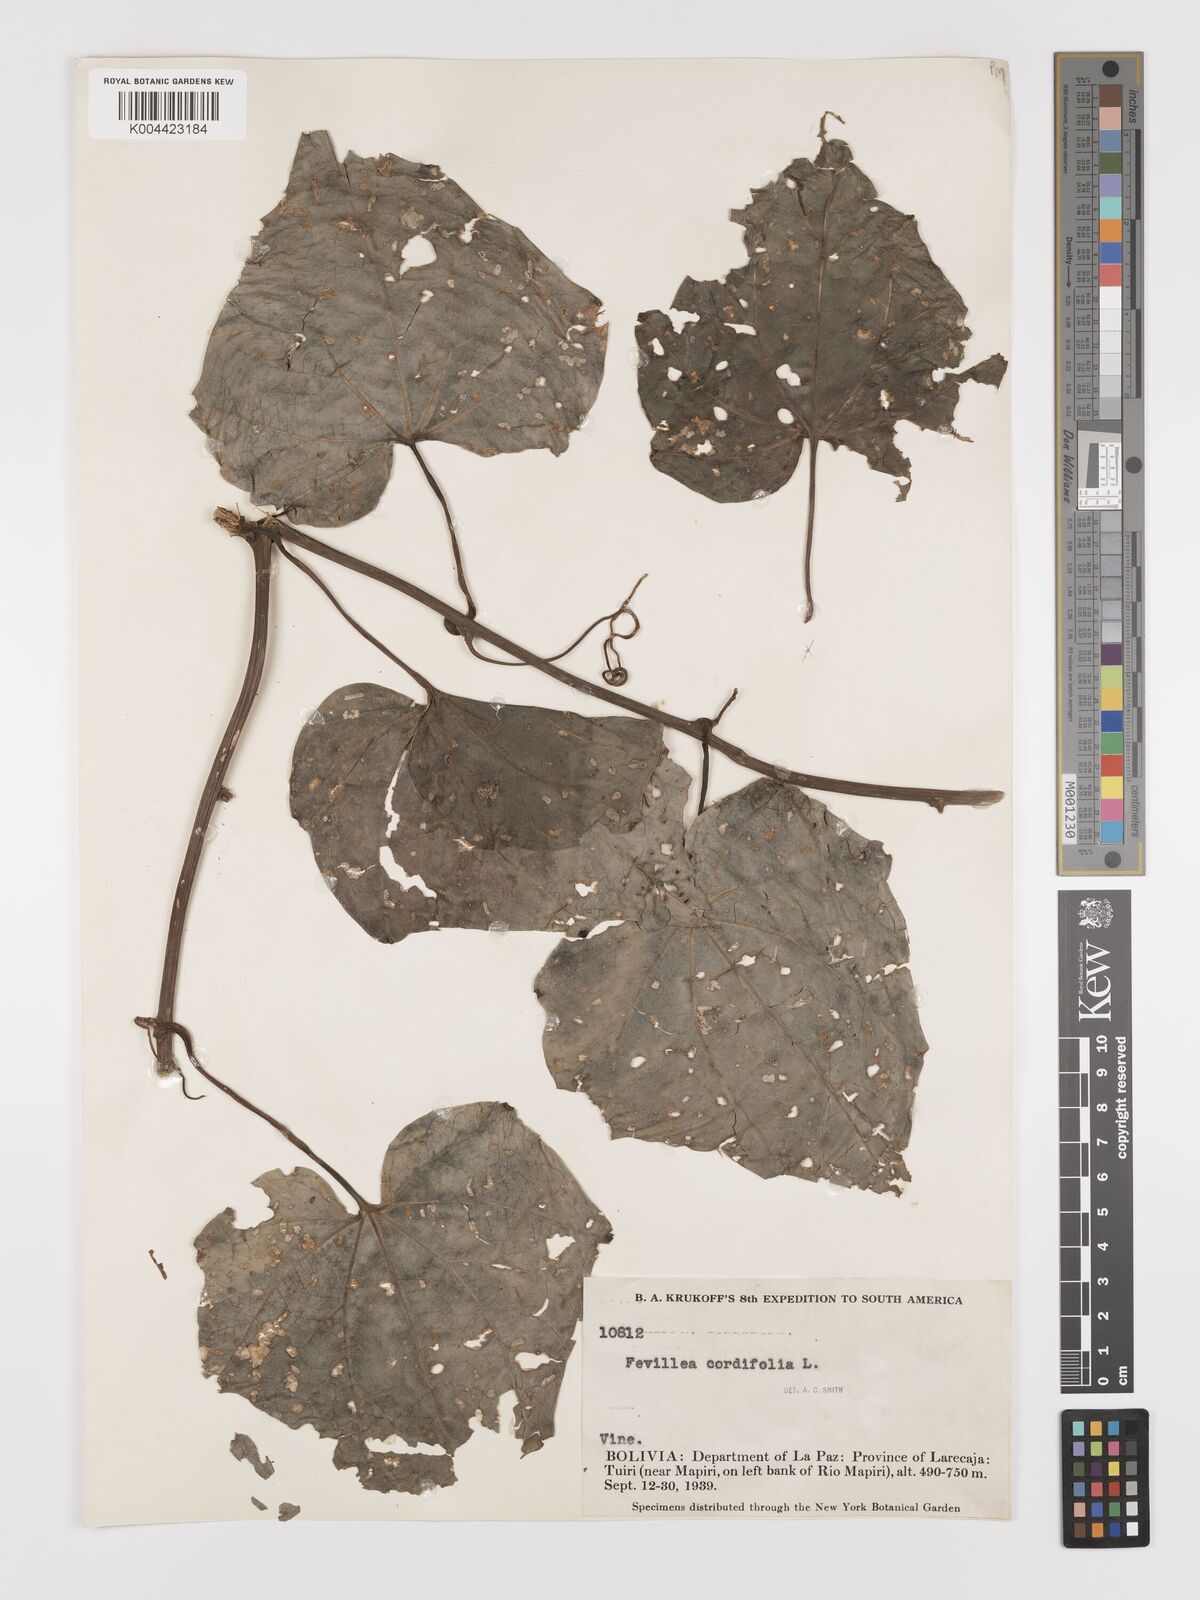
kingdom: Plantae
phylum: Tracheophyta
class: Magnoliopsida
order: Cucurbitales
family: Cucurbitaceae
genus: Fevillea
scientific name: Fevillea
